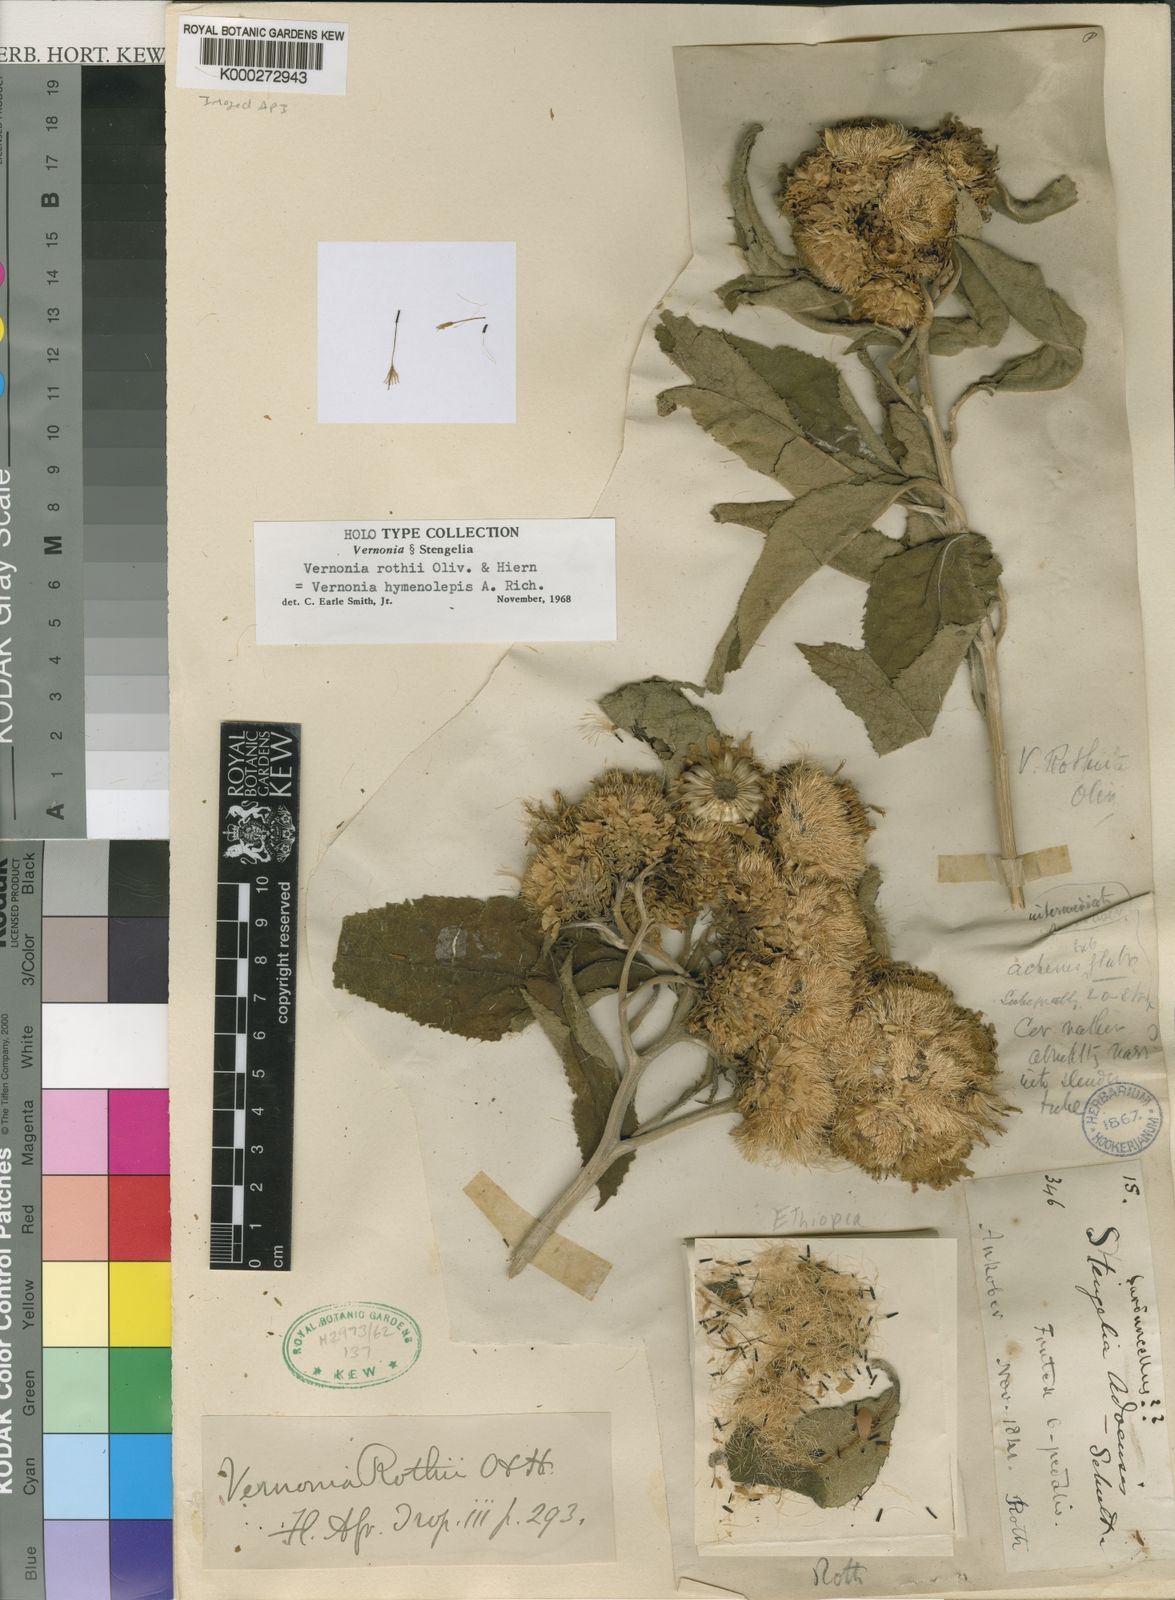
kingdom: Plantae
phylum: Tracheophyta
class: Magnoliopsida
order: Asterales
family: Asteraceae
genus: Baccharoides
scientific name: Baccharoides hymenolepis
